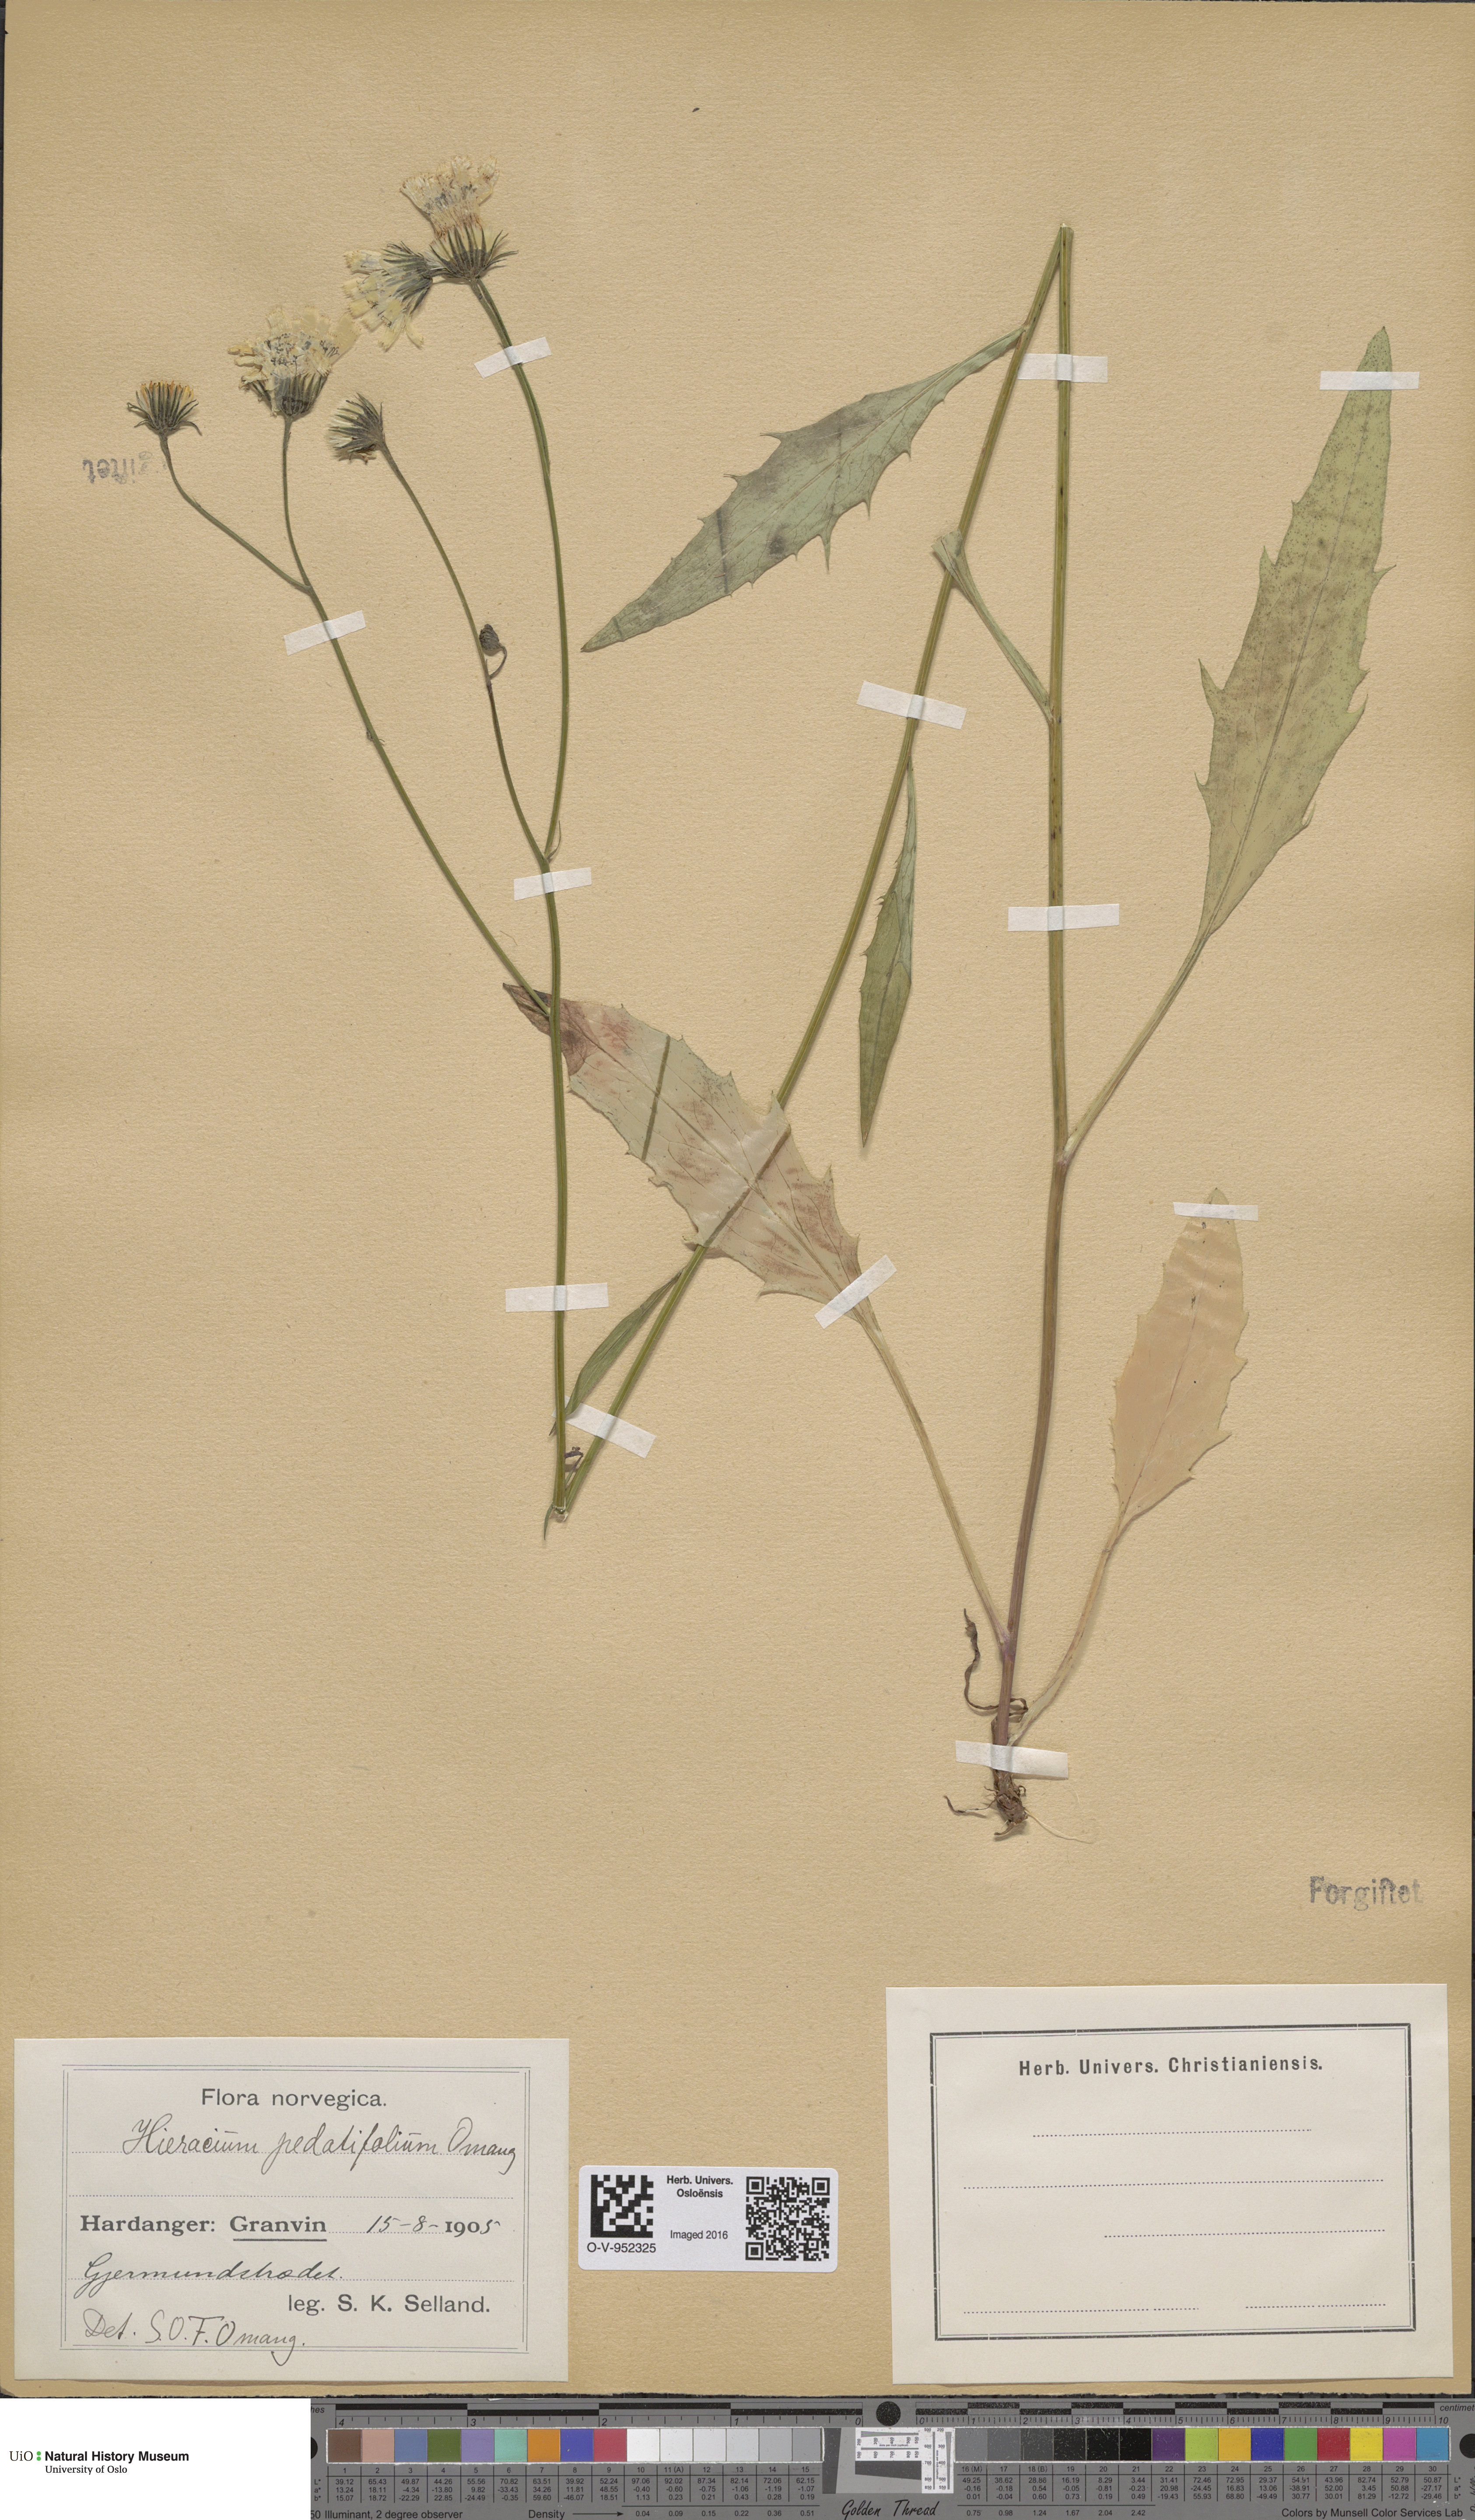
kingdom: Plantae
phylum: Tracheophyta
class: Magnoliopsida
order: Asterales
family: Asteraceae
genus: Hieracium
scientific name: Hieracium obscuratum
